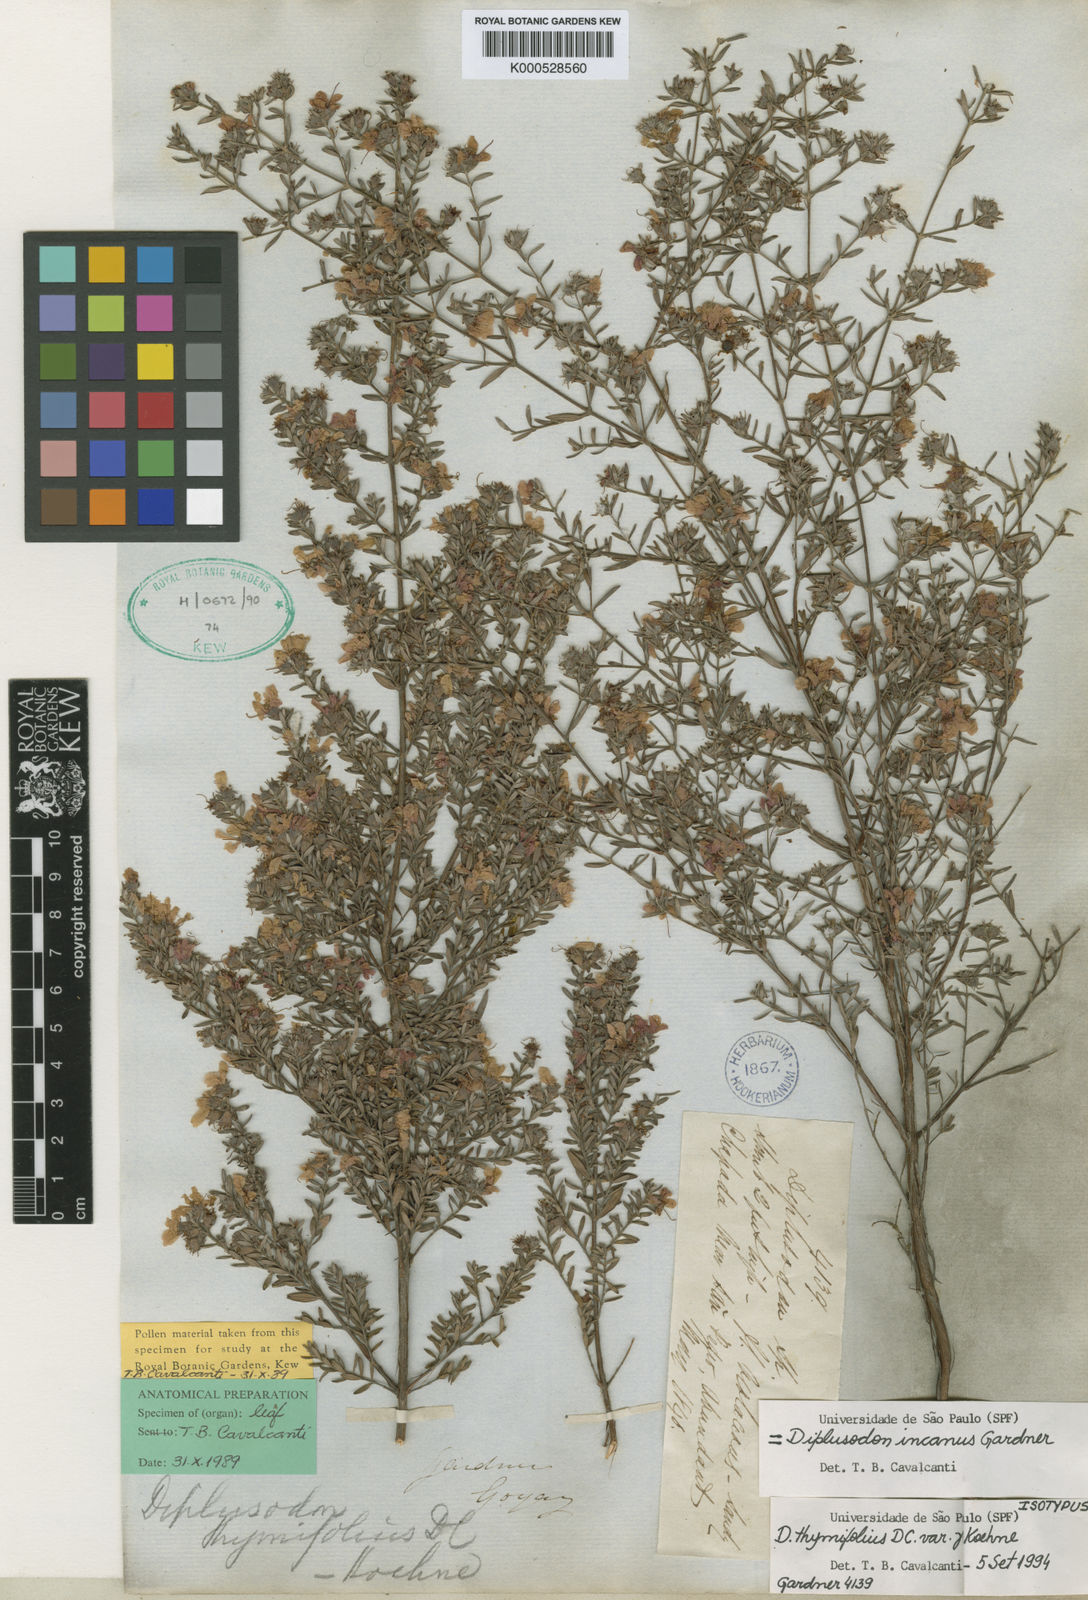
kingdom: Plantae
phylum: Tracheophyta
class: Magnoliopsida
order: Myrtales
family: Lythraceae
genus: Diplusodon
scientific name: Diplusodon incanus
